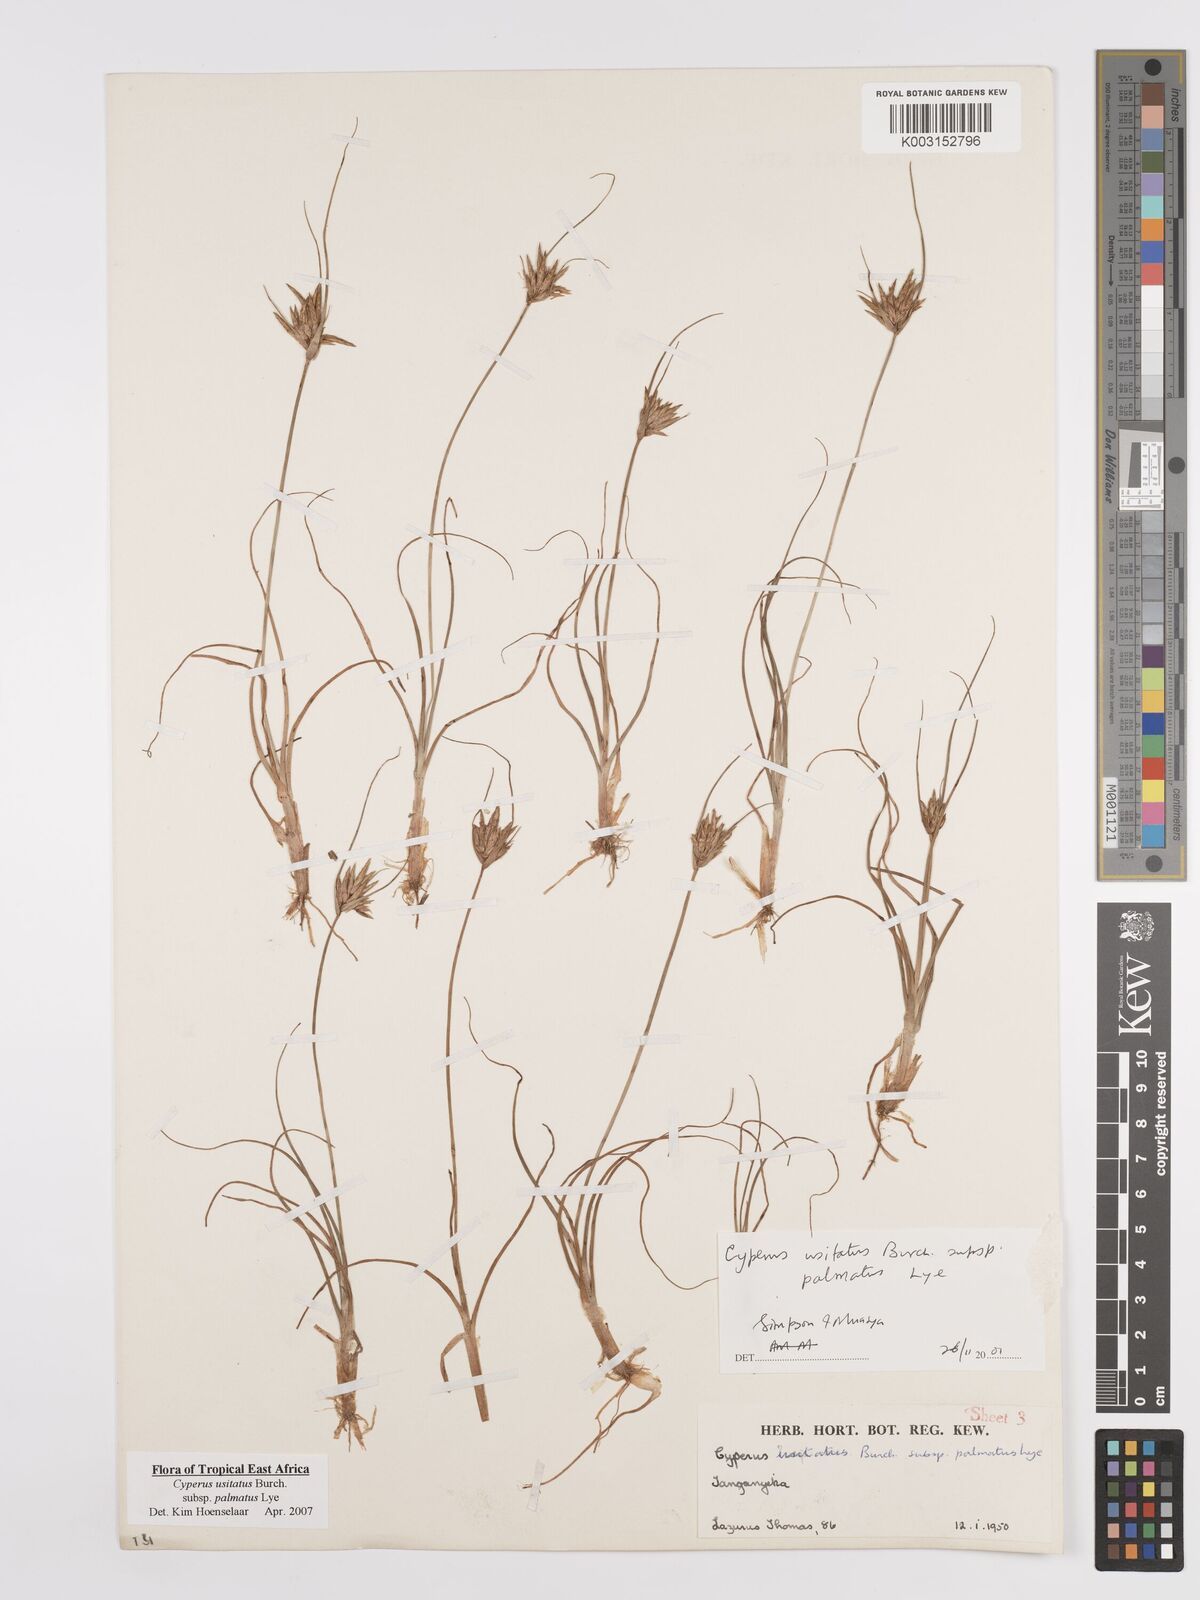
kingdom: Plantae
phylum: Tracheophyta
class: Liliopsida
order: Poales
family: Cyperaceae
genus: Cyperus
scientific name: Cyperus palmatus
